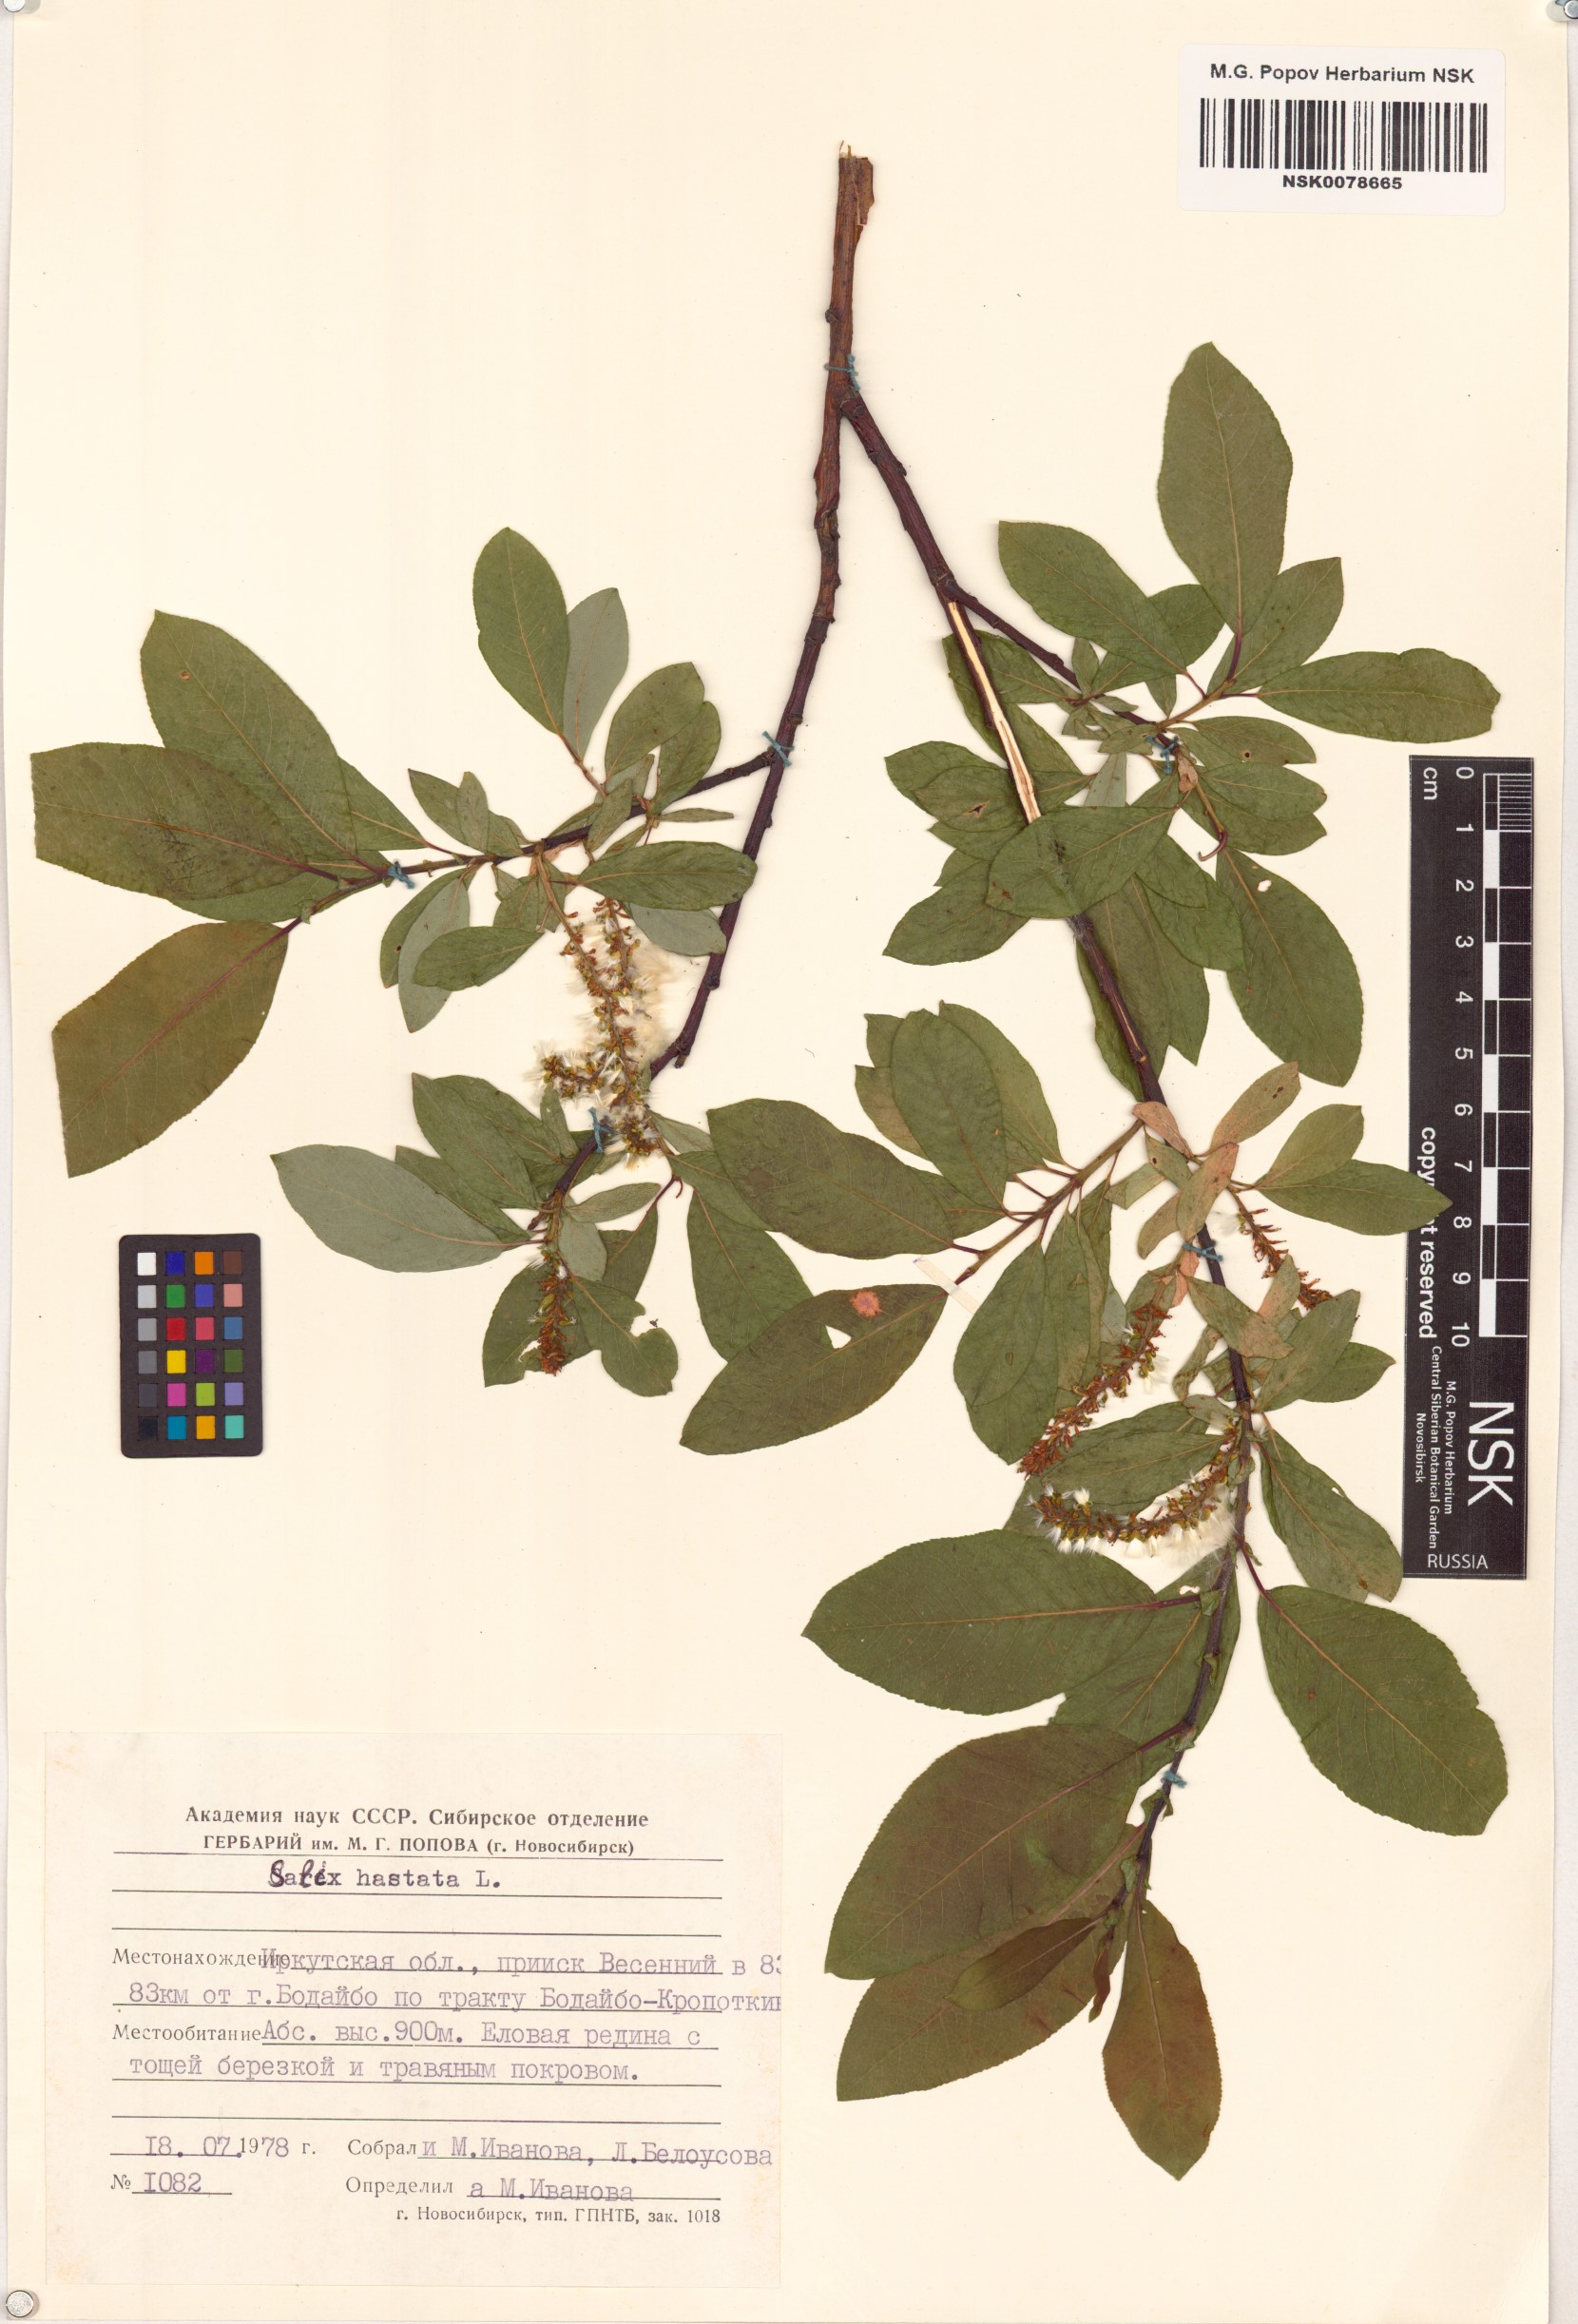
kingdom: Plantae
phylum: Tracheophyta
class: Magnoliopsida
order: Malpighiales
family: Salicaceae
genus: Salix
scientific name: Salix hastata
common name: Halberd willow
